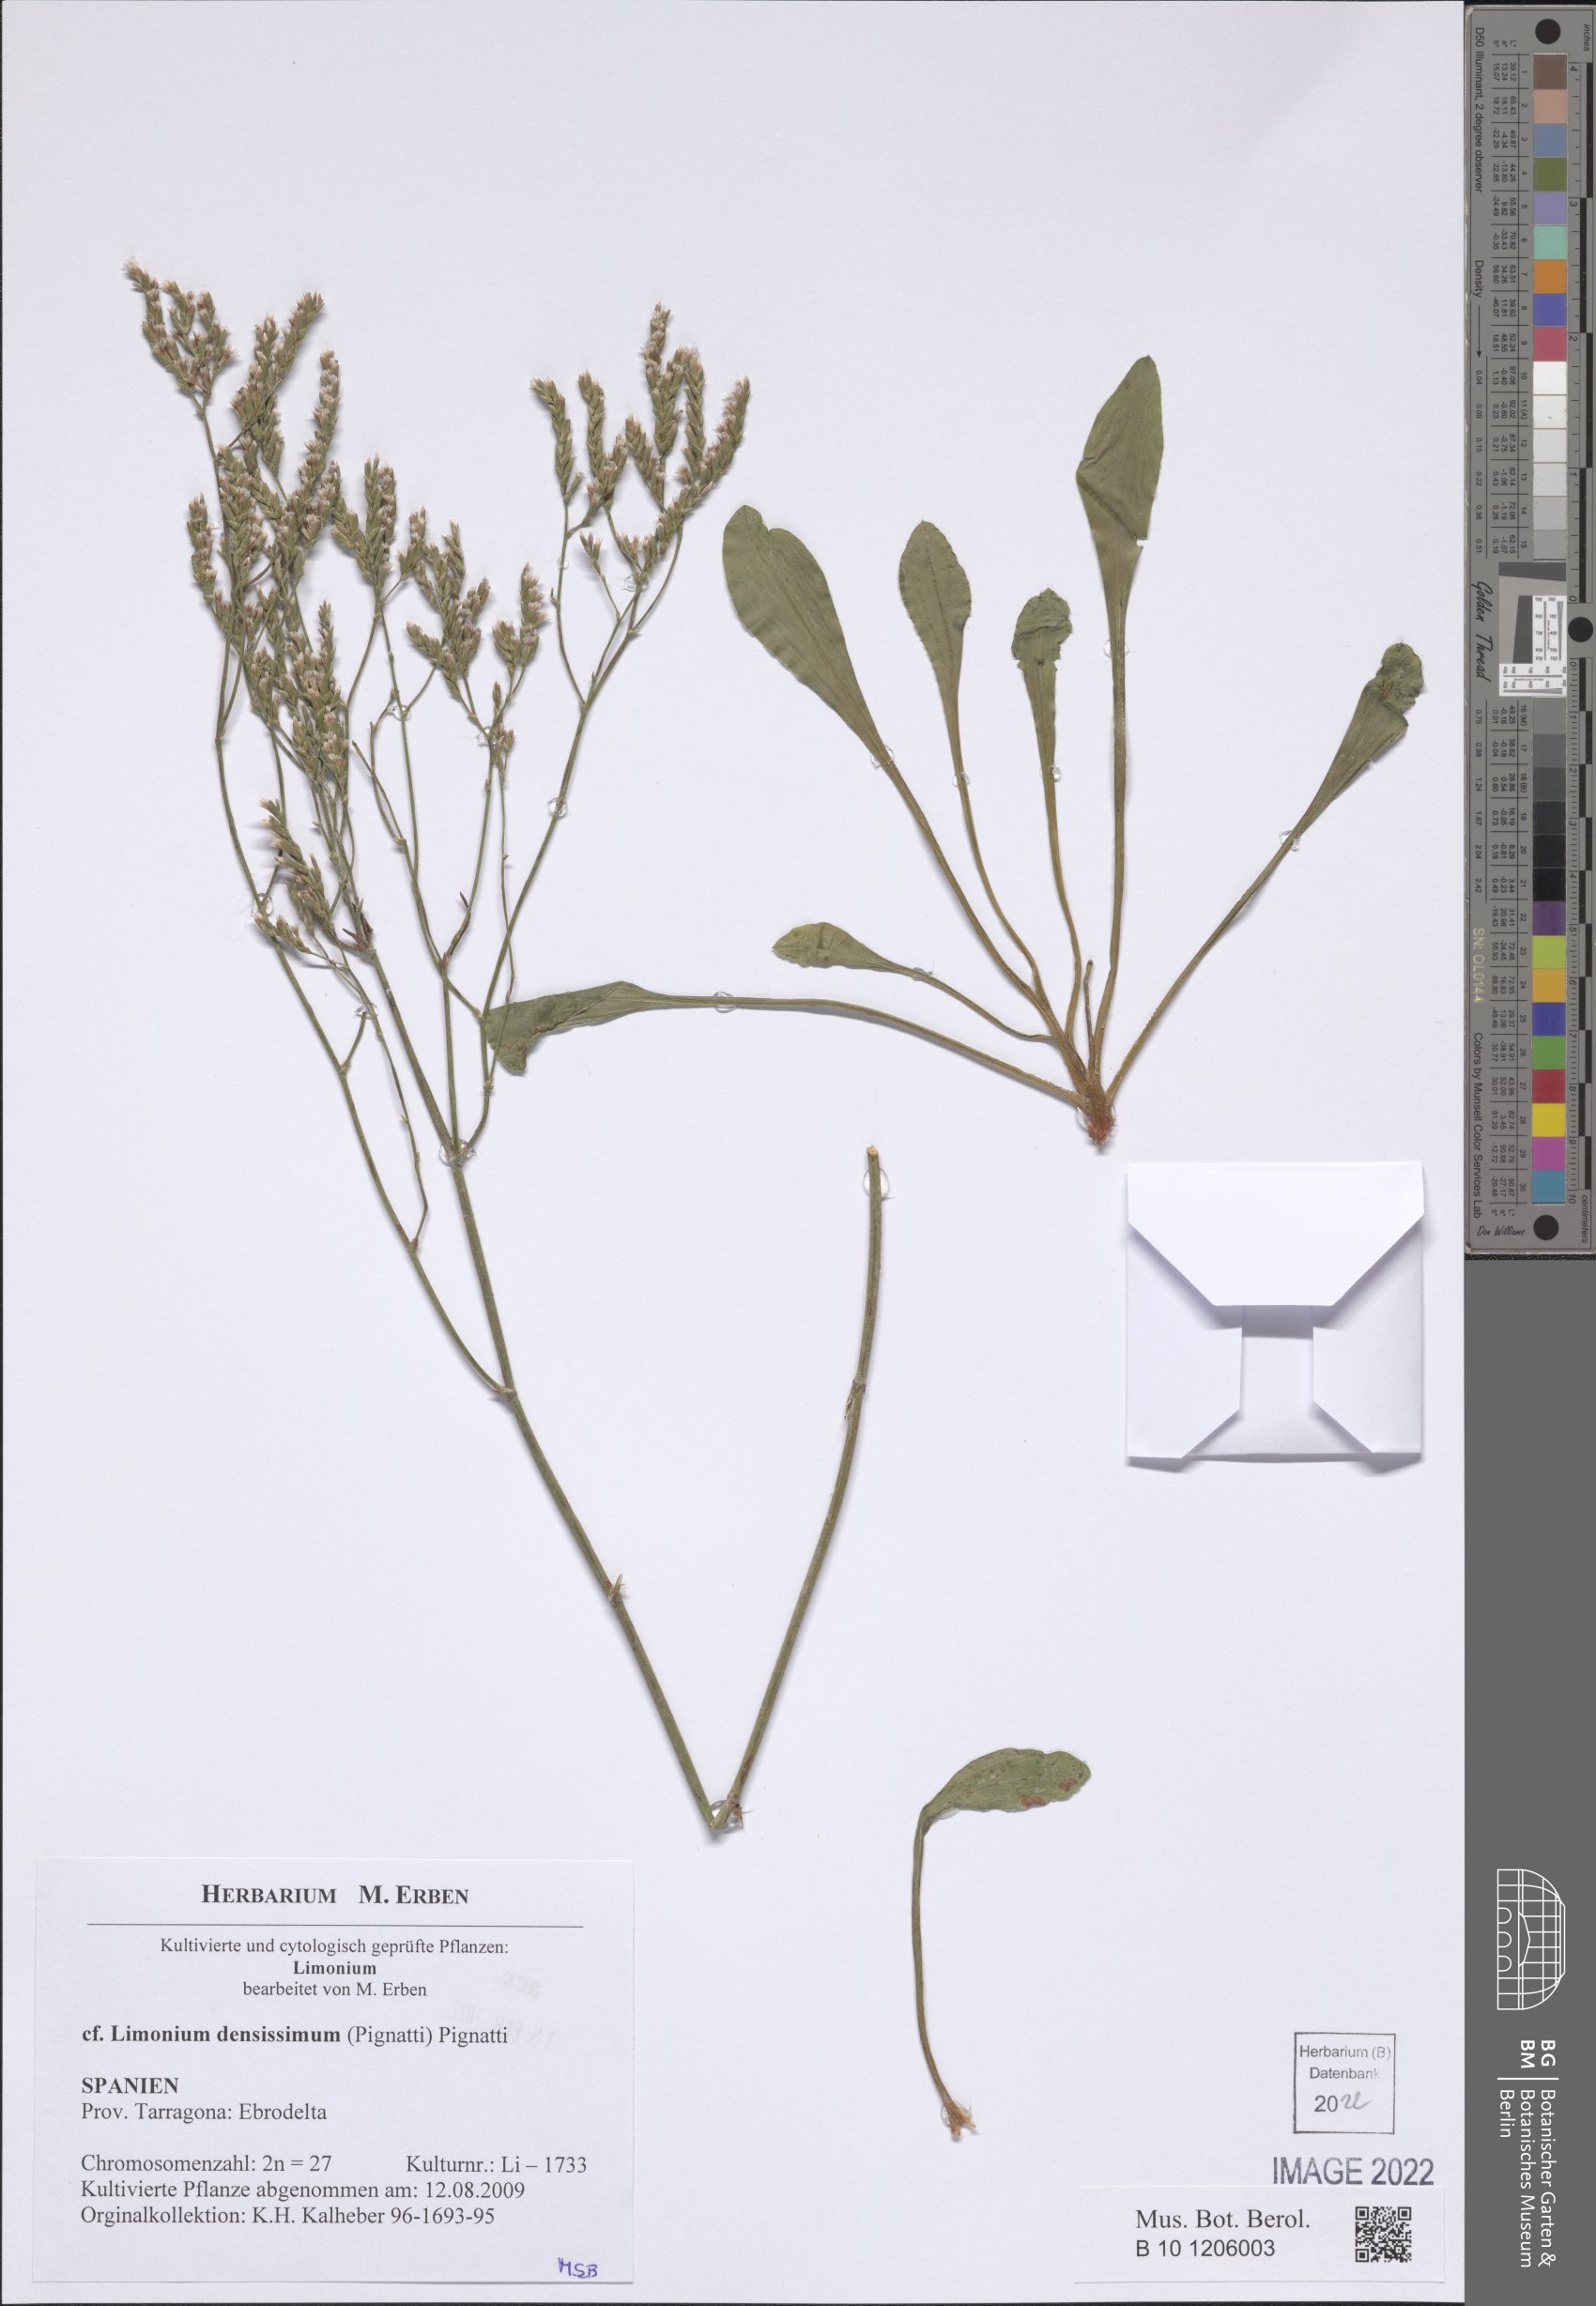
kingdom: Plantae
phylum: Tracheophyta
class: Magnoliopsida
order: Caryophyllales
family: Plumbaginaceae
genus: Limonium
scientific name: Limonium densissimum
